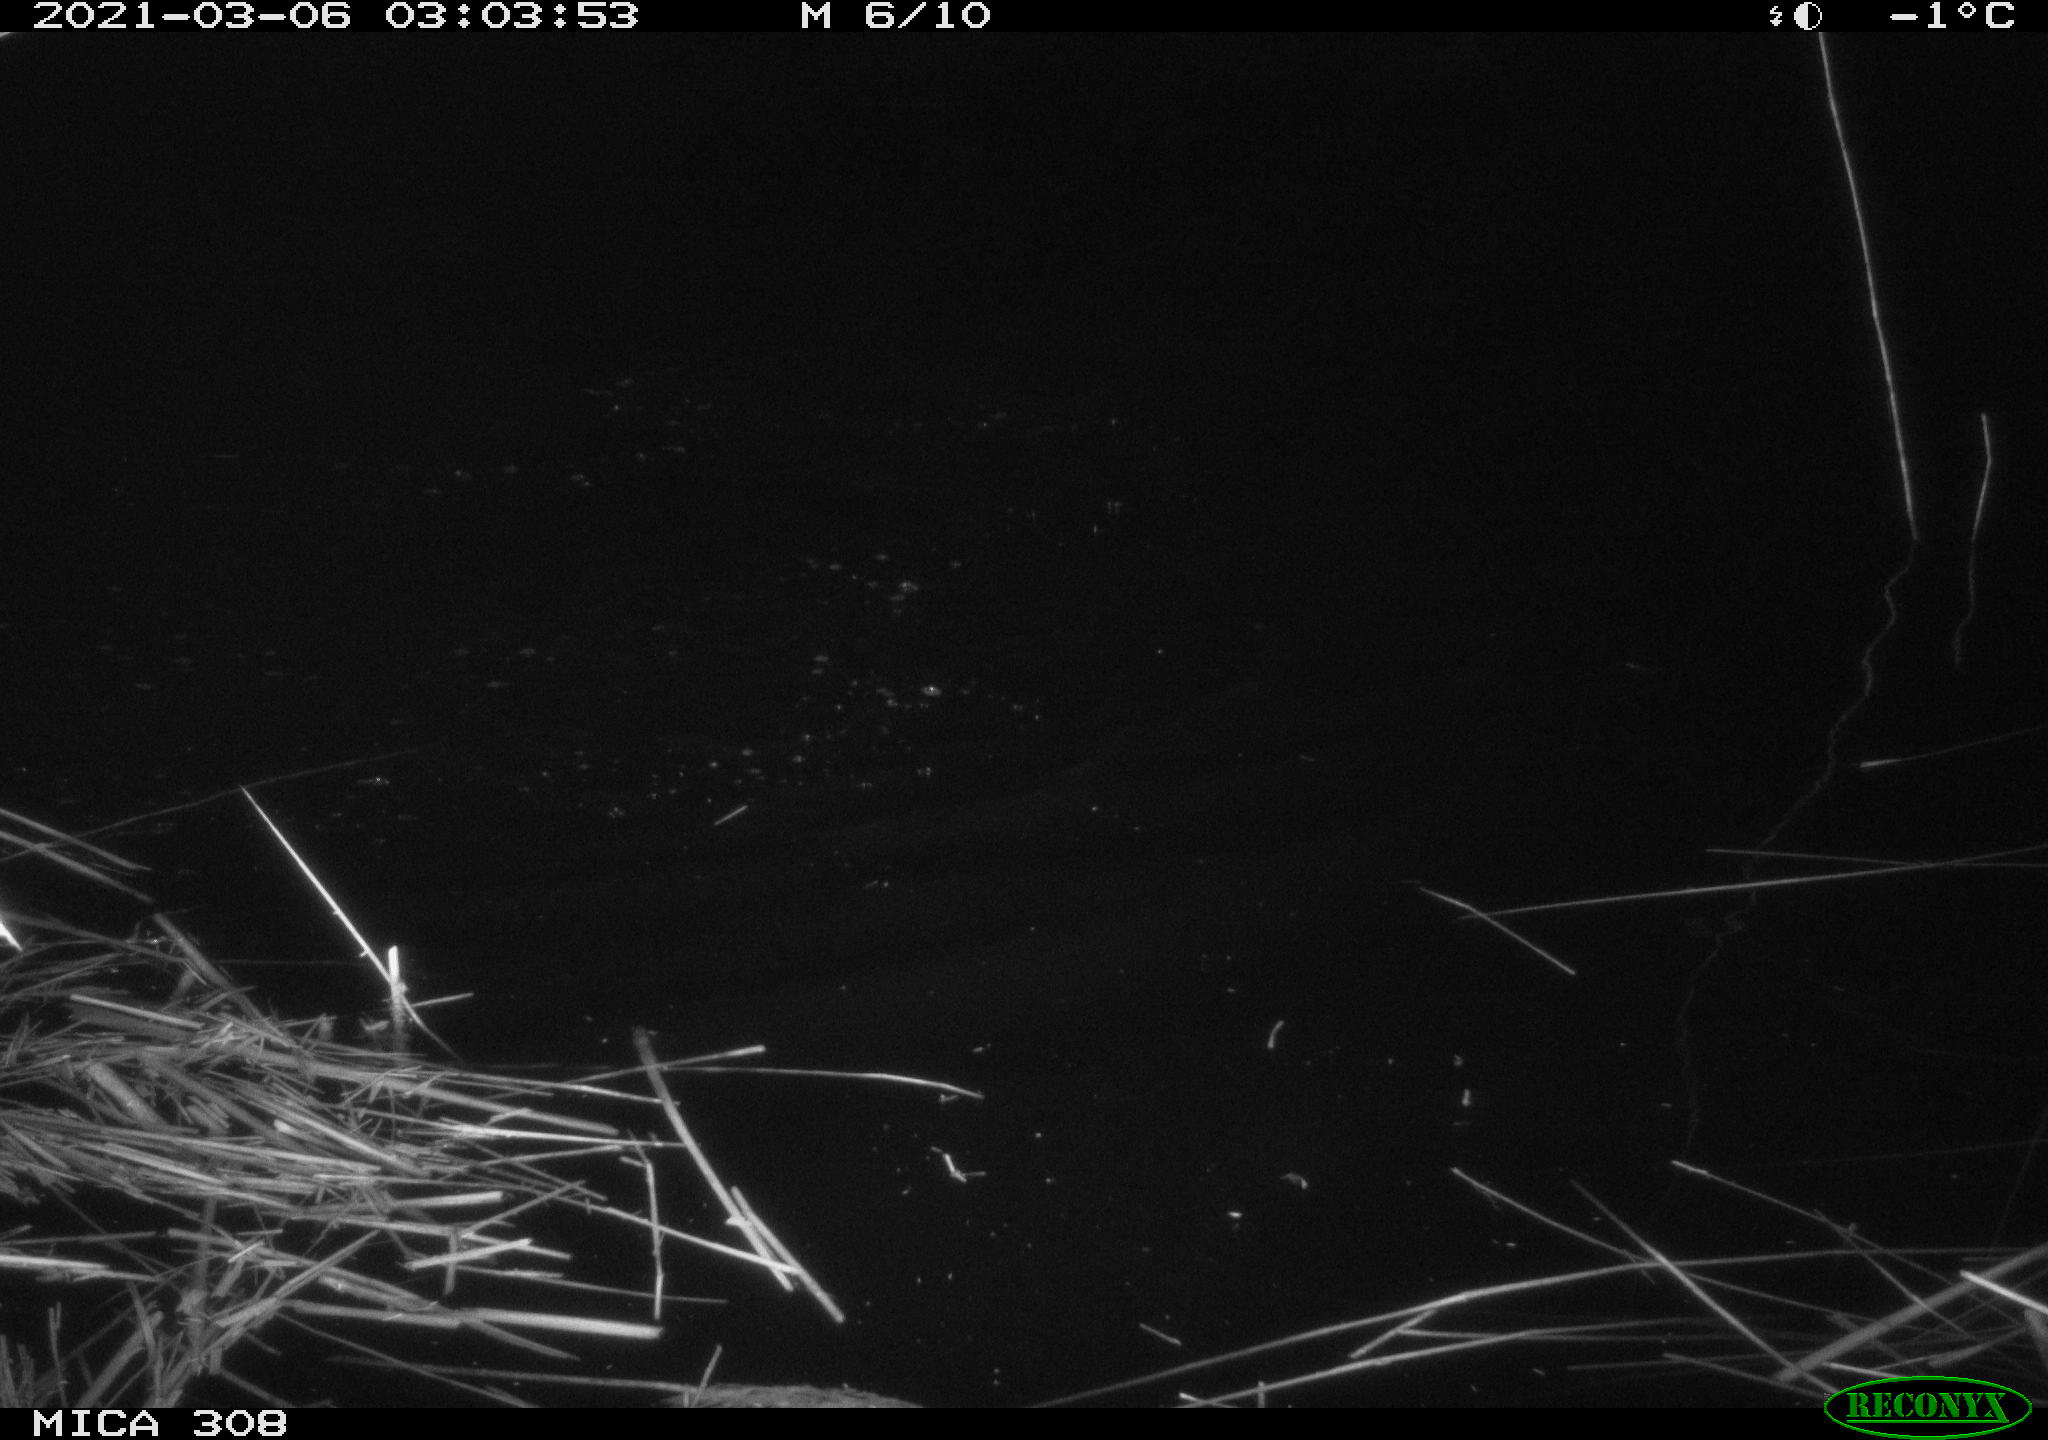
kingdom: Animalia
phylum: Chordata
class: Aves
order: Anseriformes
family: Anatidae
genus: Anas
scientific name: Anas platyrhynchos
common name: Mallard
